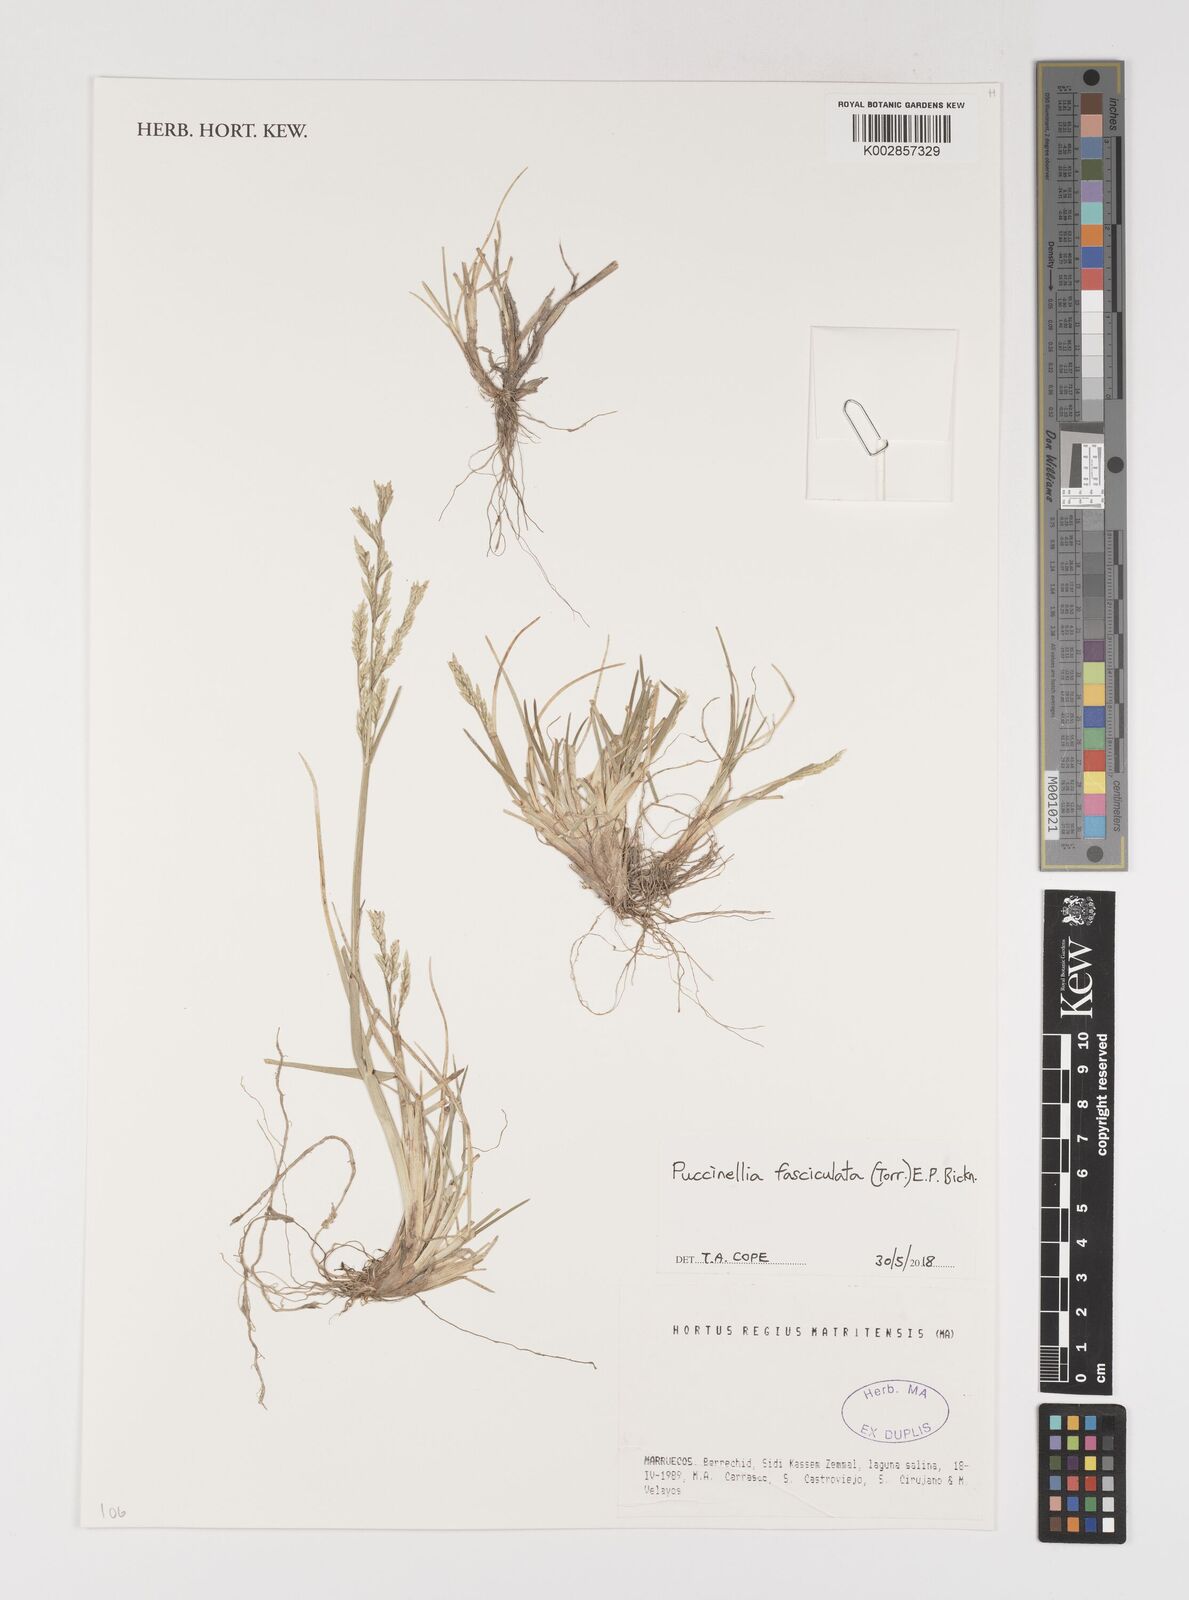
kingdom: Plantae
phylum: Tracheophyta
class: Liliopsida
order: Poales
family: Poaceae
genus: Puccinellia
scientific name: Puccinellia fasciculata
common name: Borrer's saltmarsh-grass
